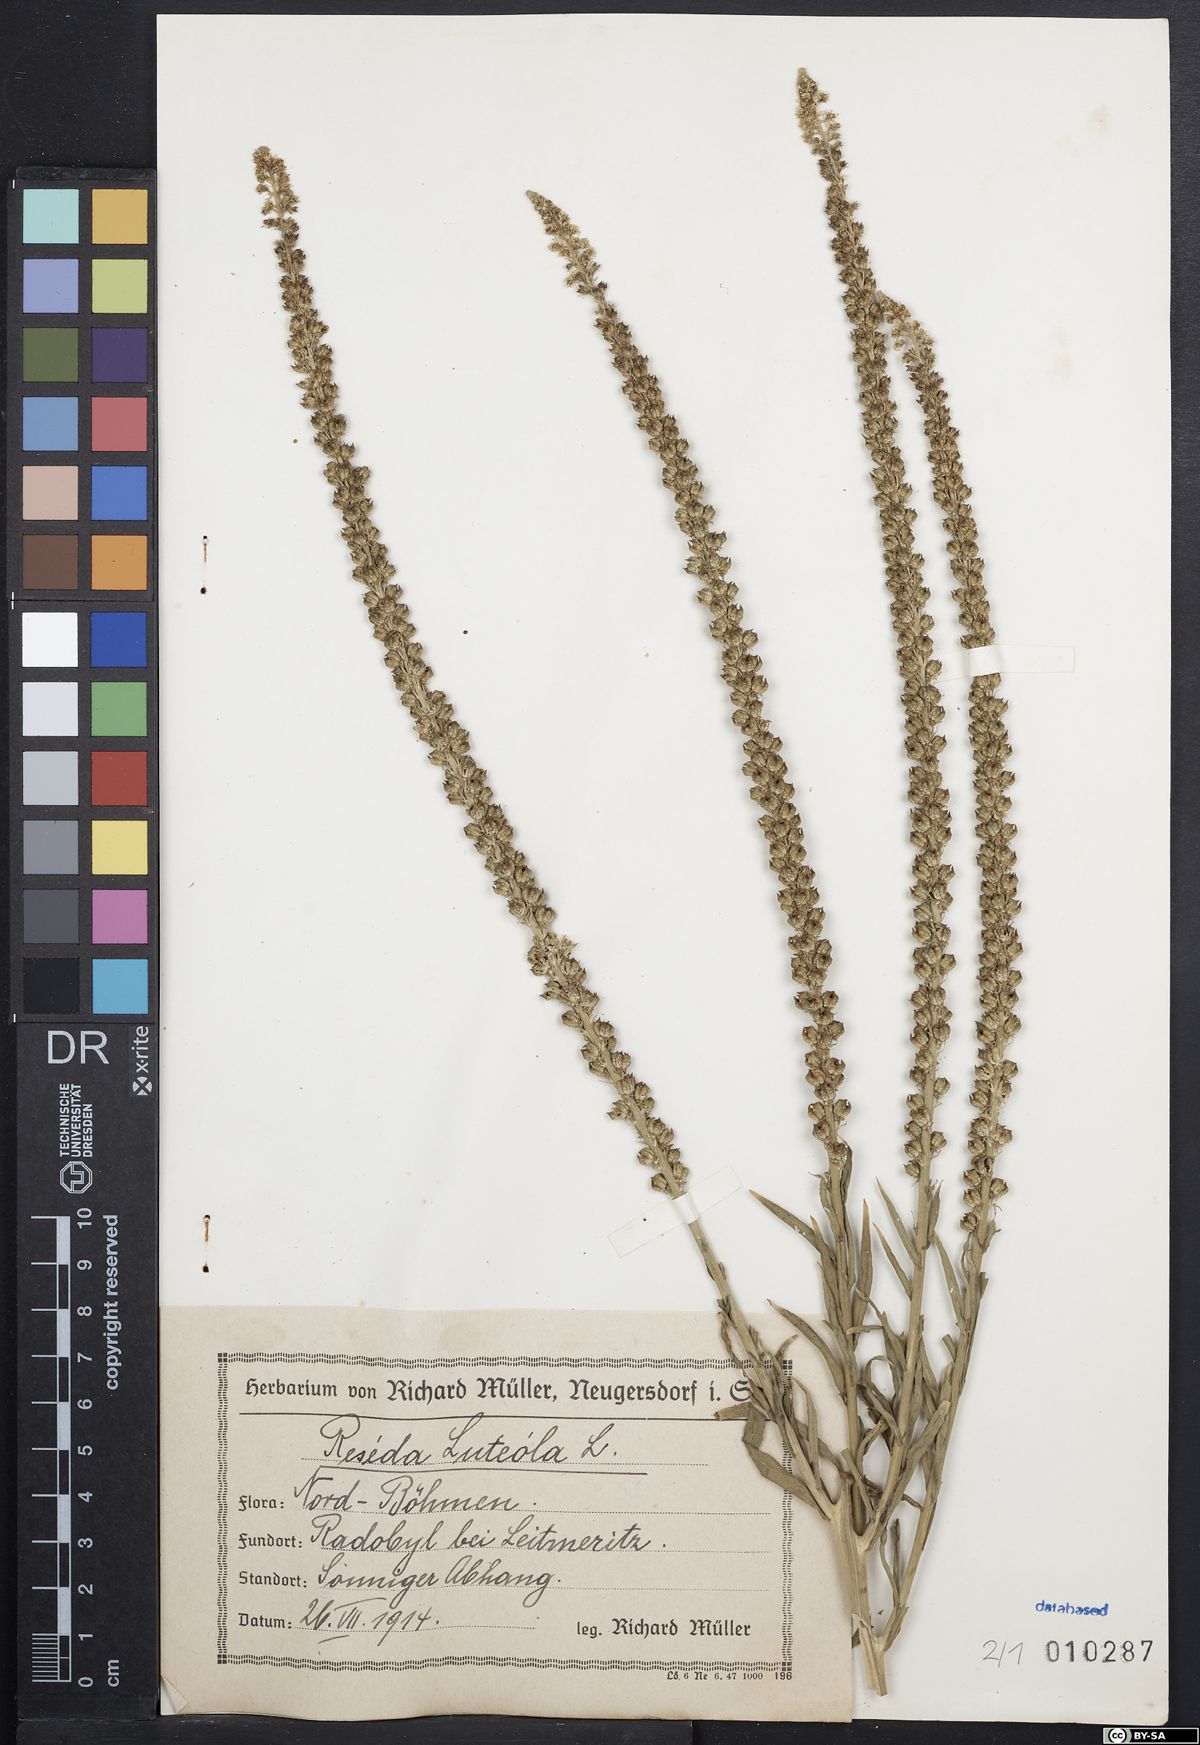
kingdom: Plantae
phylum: Tracheophyta
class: Magnoliopsida
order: Brassicales
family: Resedaceae
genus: Reseda
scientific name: Reseda lutea
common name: Wild mignonette
